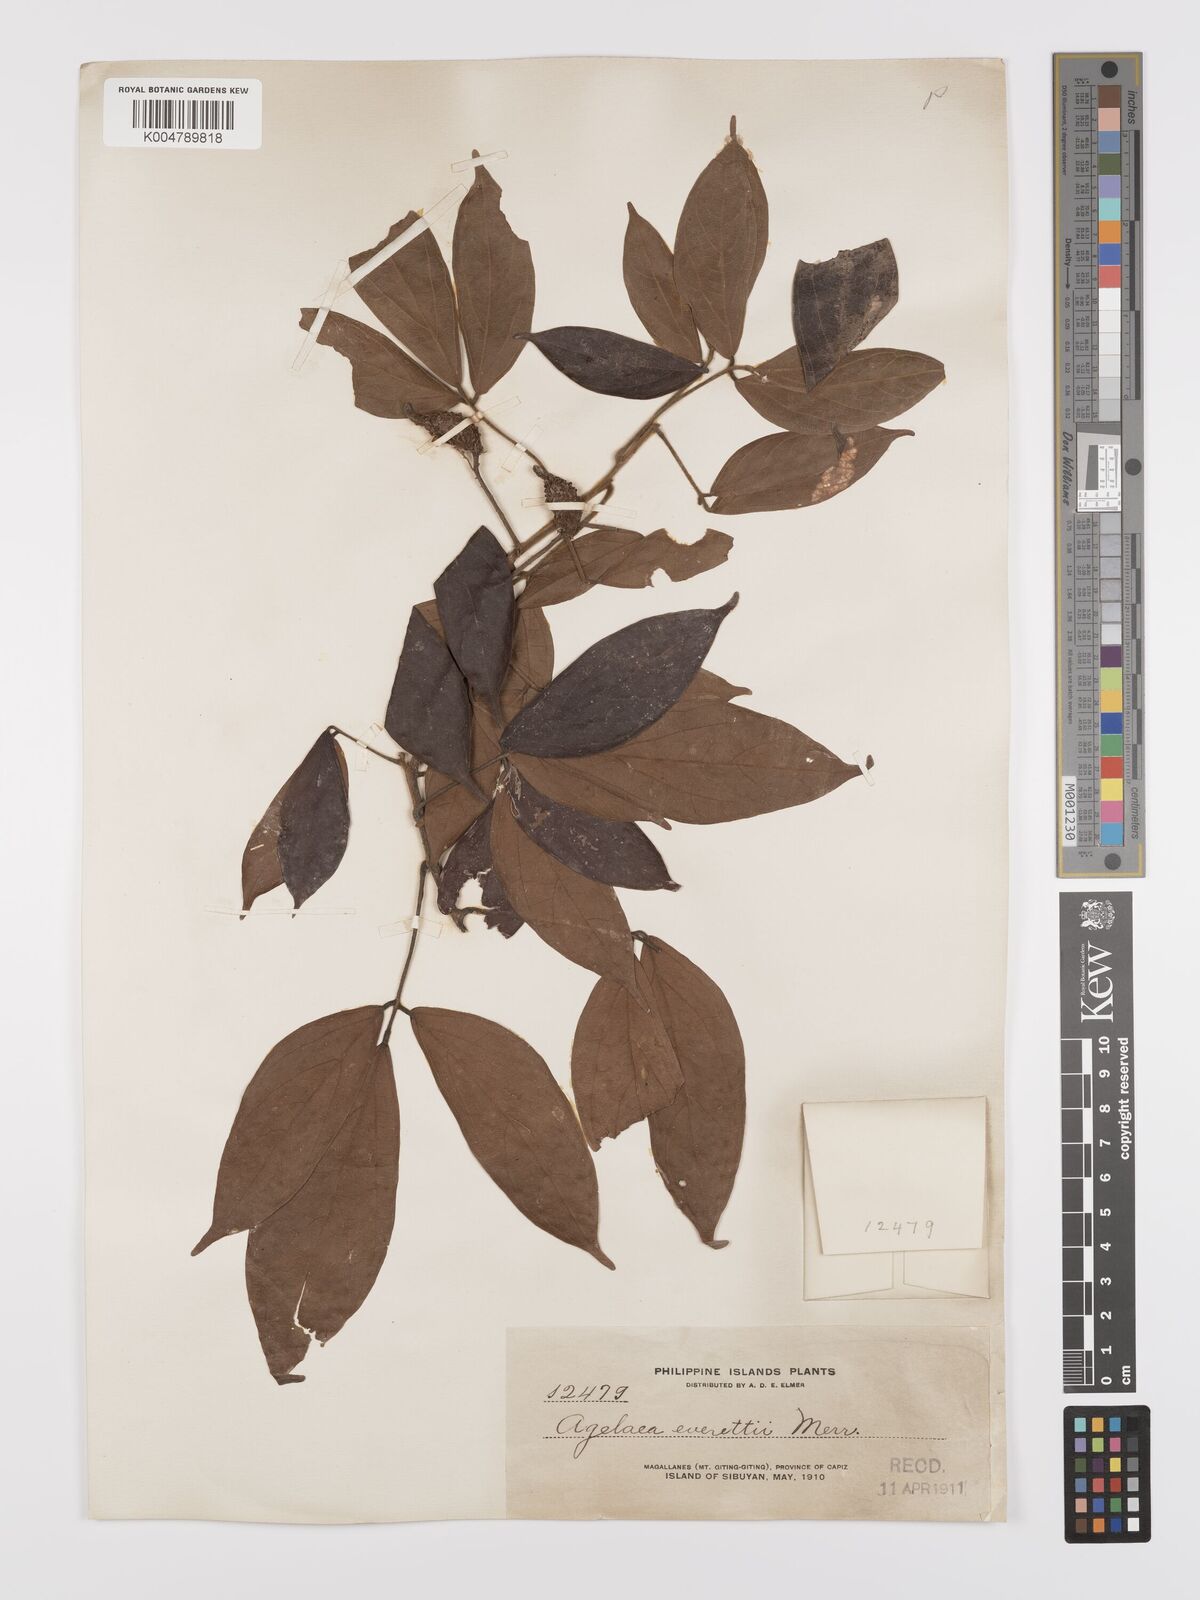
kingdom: Plantae
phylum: Tracheophyta
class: Magnoliopsida
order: Oxalidales
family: Connaraceae
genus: Agelaea
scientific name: Agelaea borneensis
